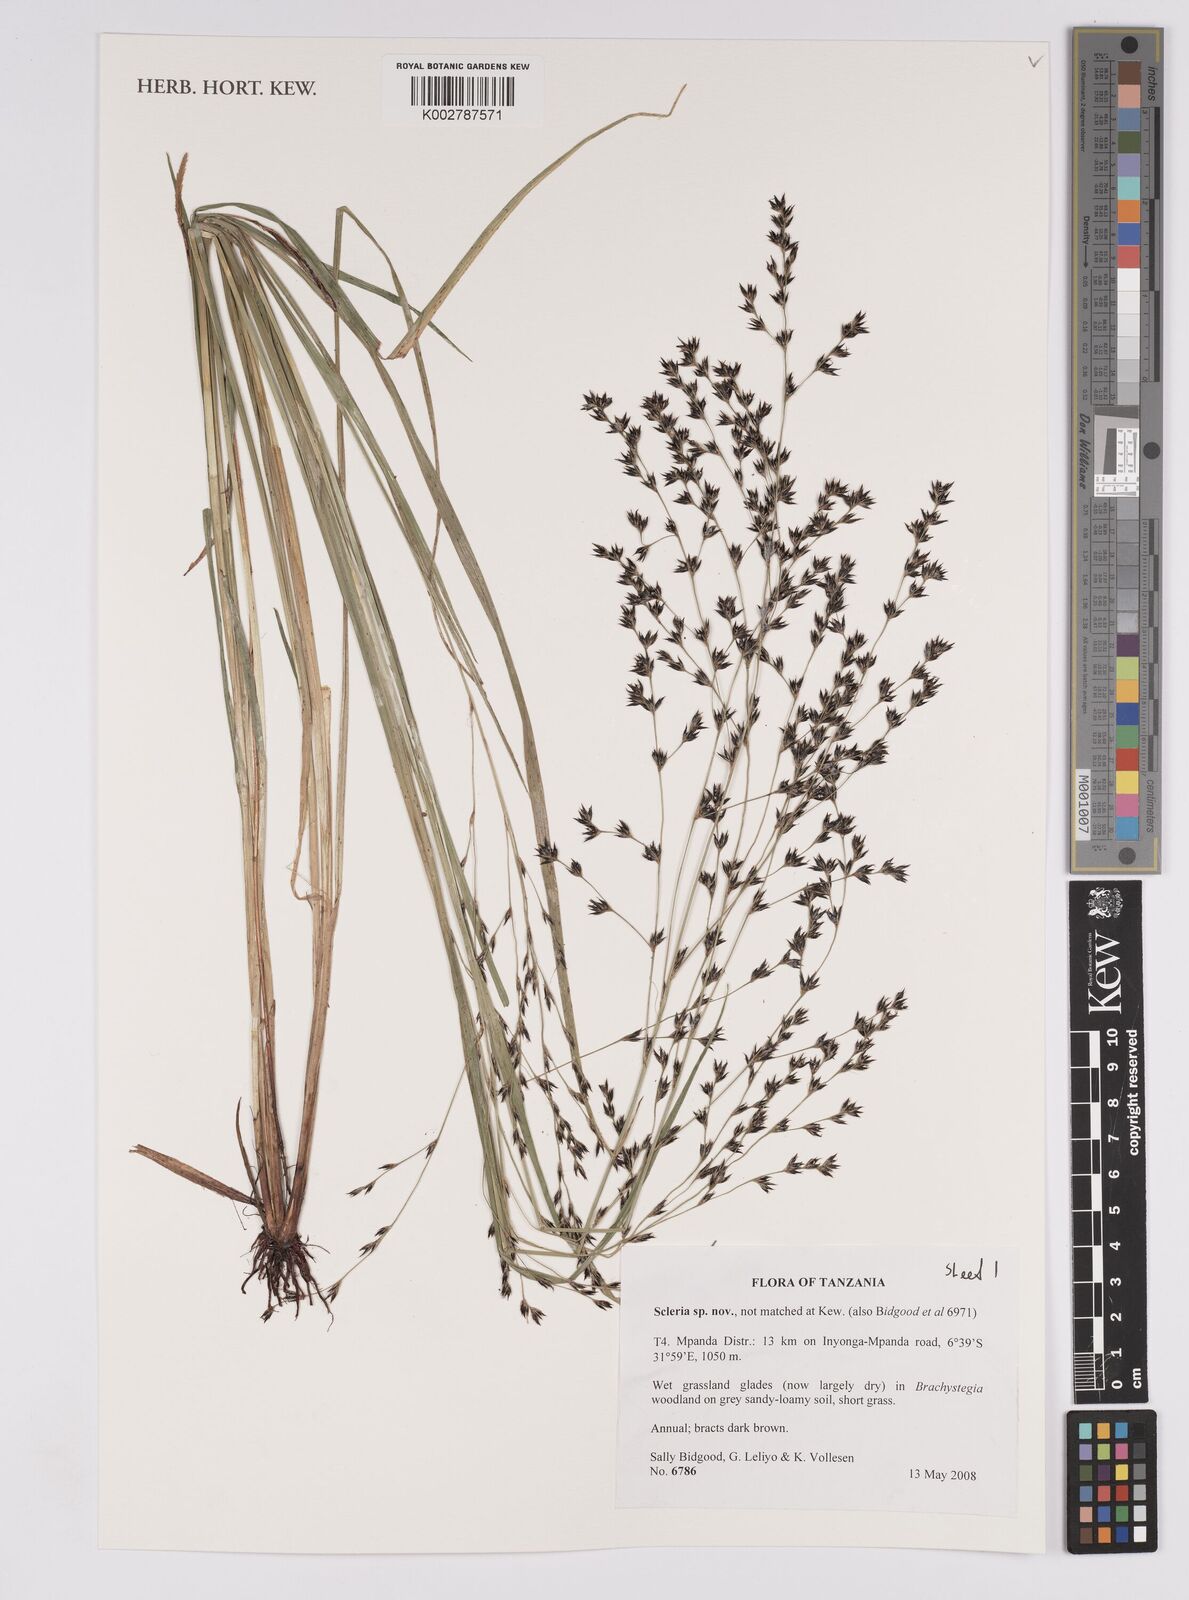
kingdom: Plantae
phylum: Tracheophyta
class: Liliopsida
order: Poales
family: Cyperaceae
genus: Scleria
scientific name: Scleria
